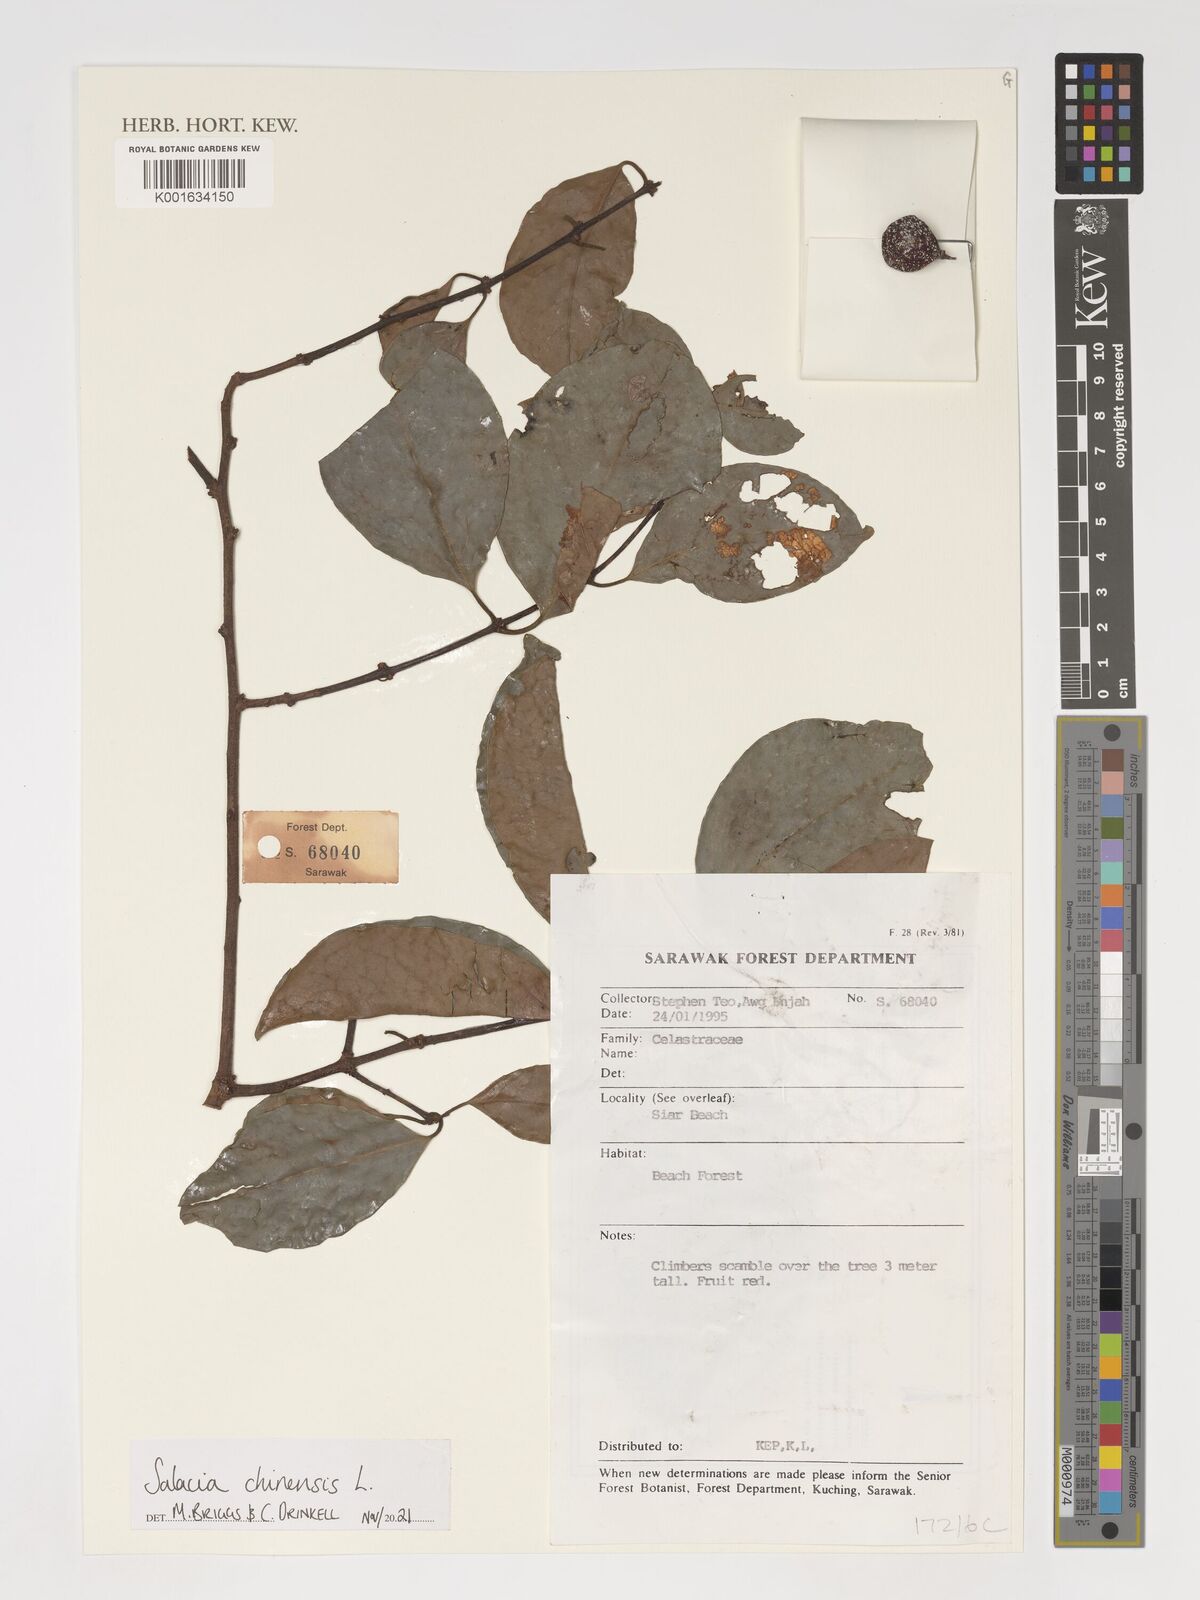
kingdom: Plantae
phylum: Tracheophyta
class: Magnoliopsida
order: Celastrales
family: Celastraceae
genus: Salacia
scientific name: Salacia chinensis
